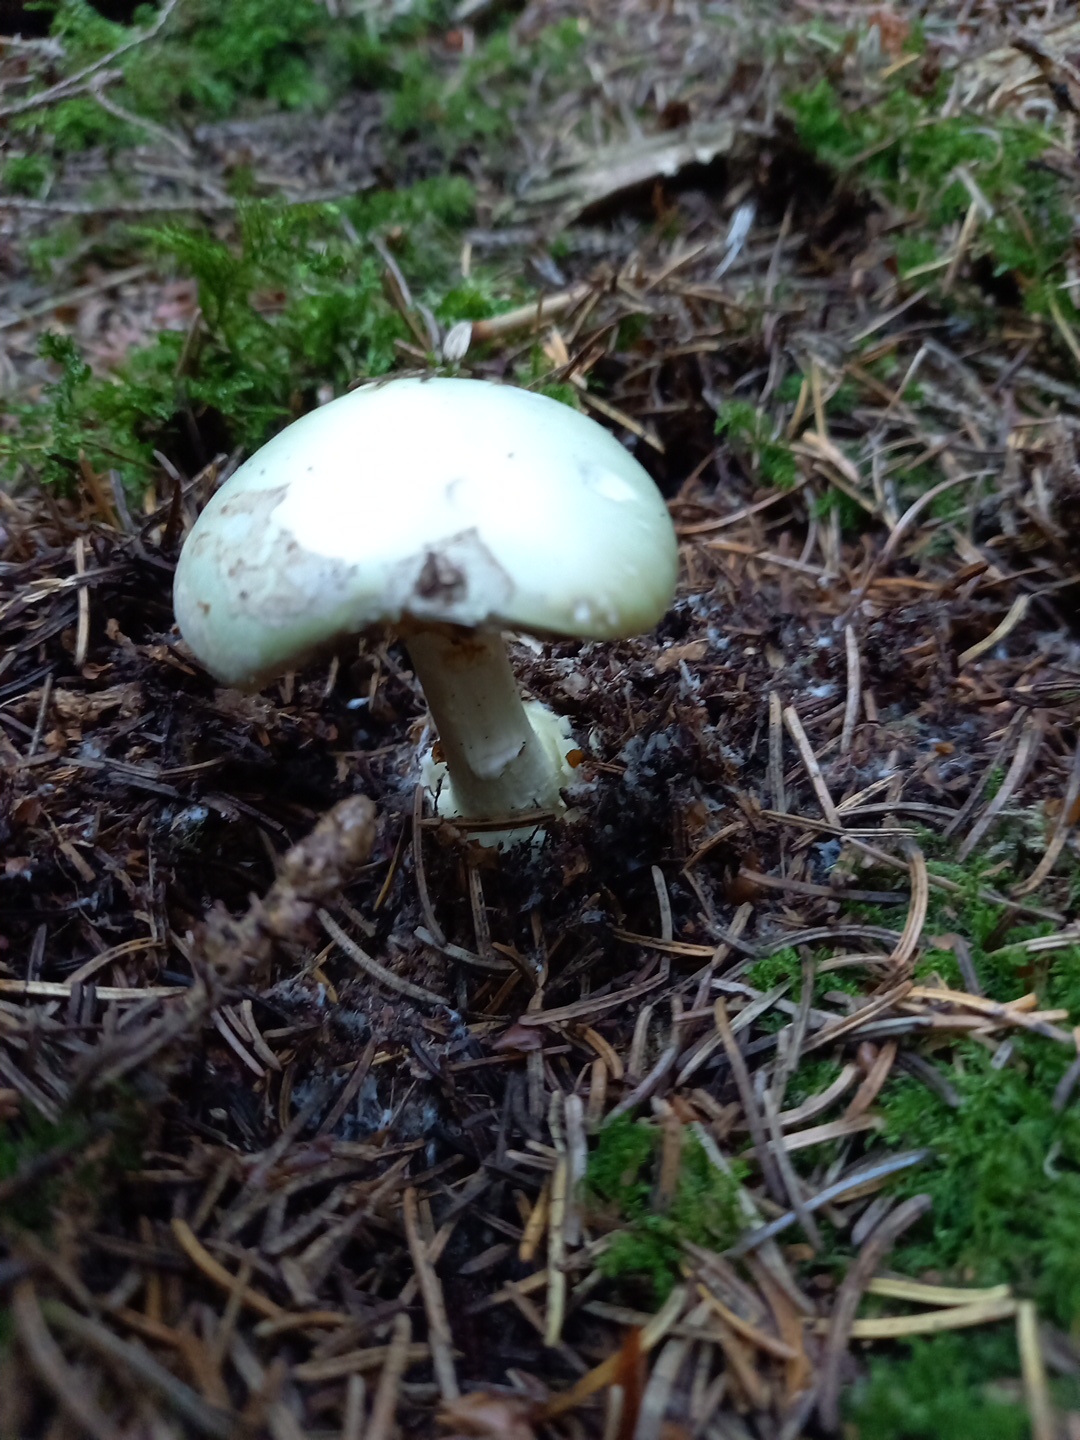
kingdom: Fungi
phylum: Basidiomycota
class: Agaricomycetes
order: Agaricales
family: Amanitaceae
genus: Amanita
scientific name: Amanita citrina
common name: kugleknoldet fluesvamp
